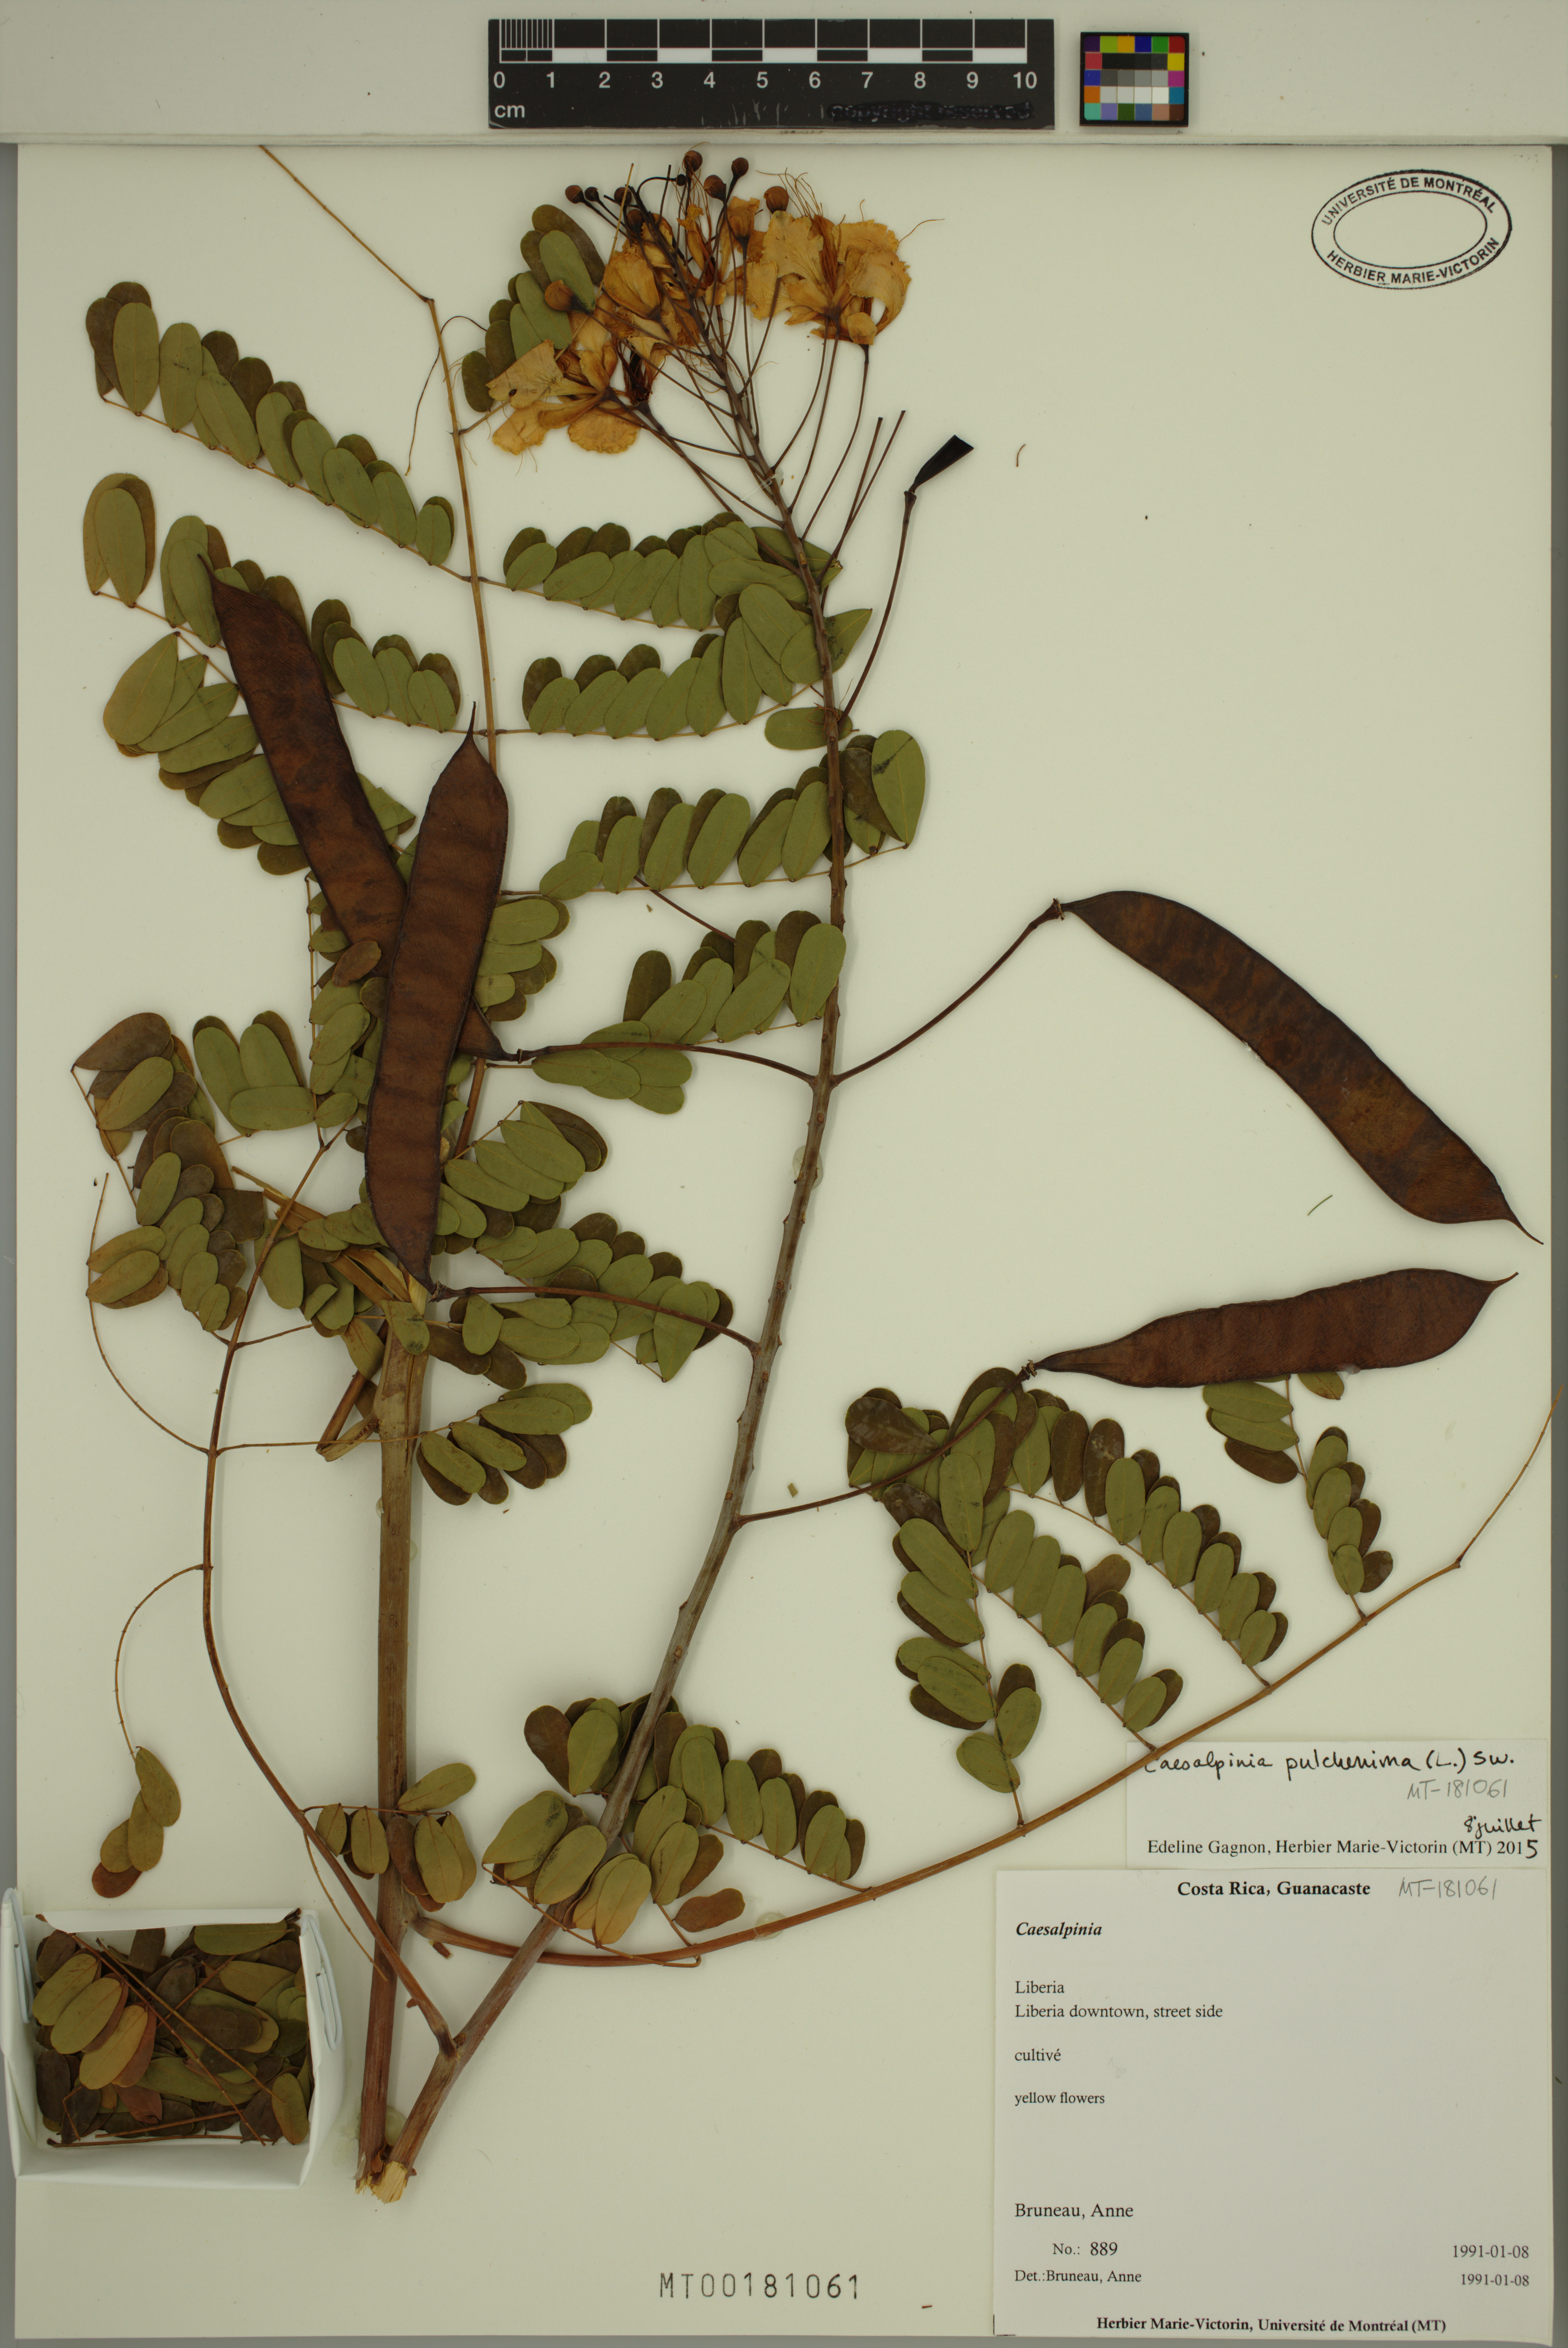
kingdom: Plantae
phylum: Tracheophyta
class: Magnoliopsida
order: Fabales
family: Fabaceae
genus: Caesalpinia
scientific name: Caesalpinia pulcherrima
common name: Pride-of-barbados
